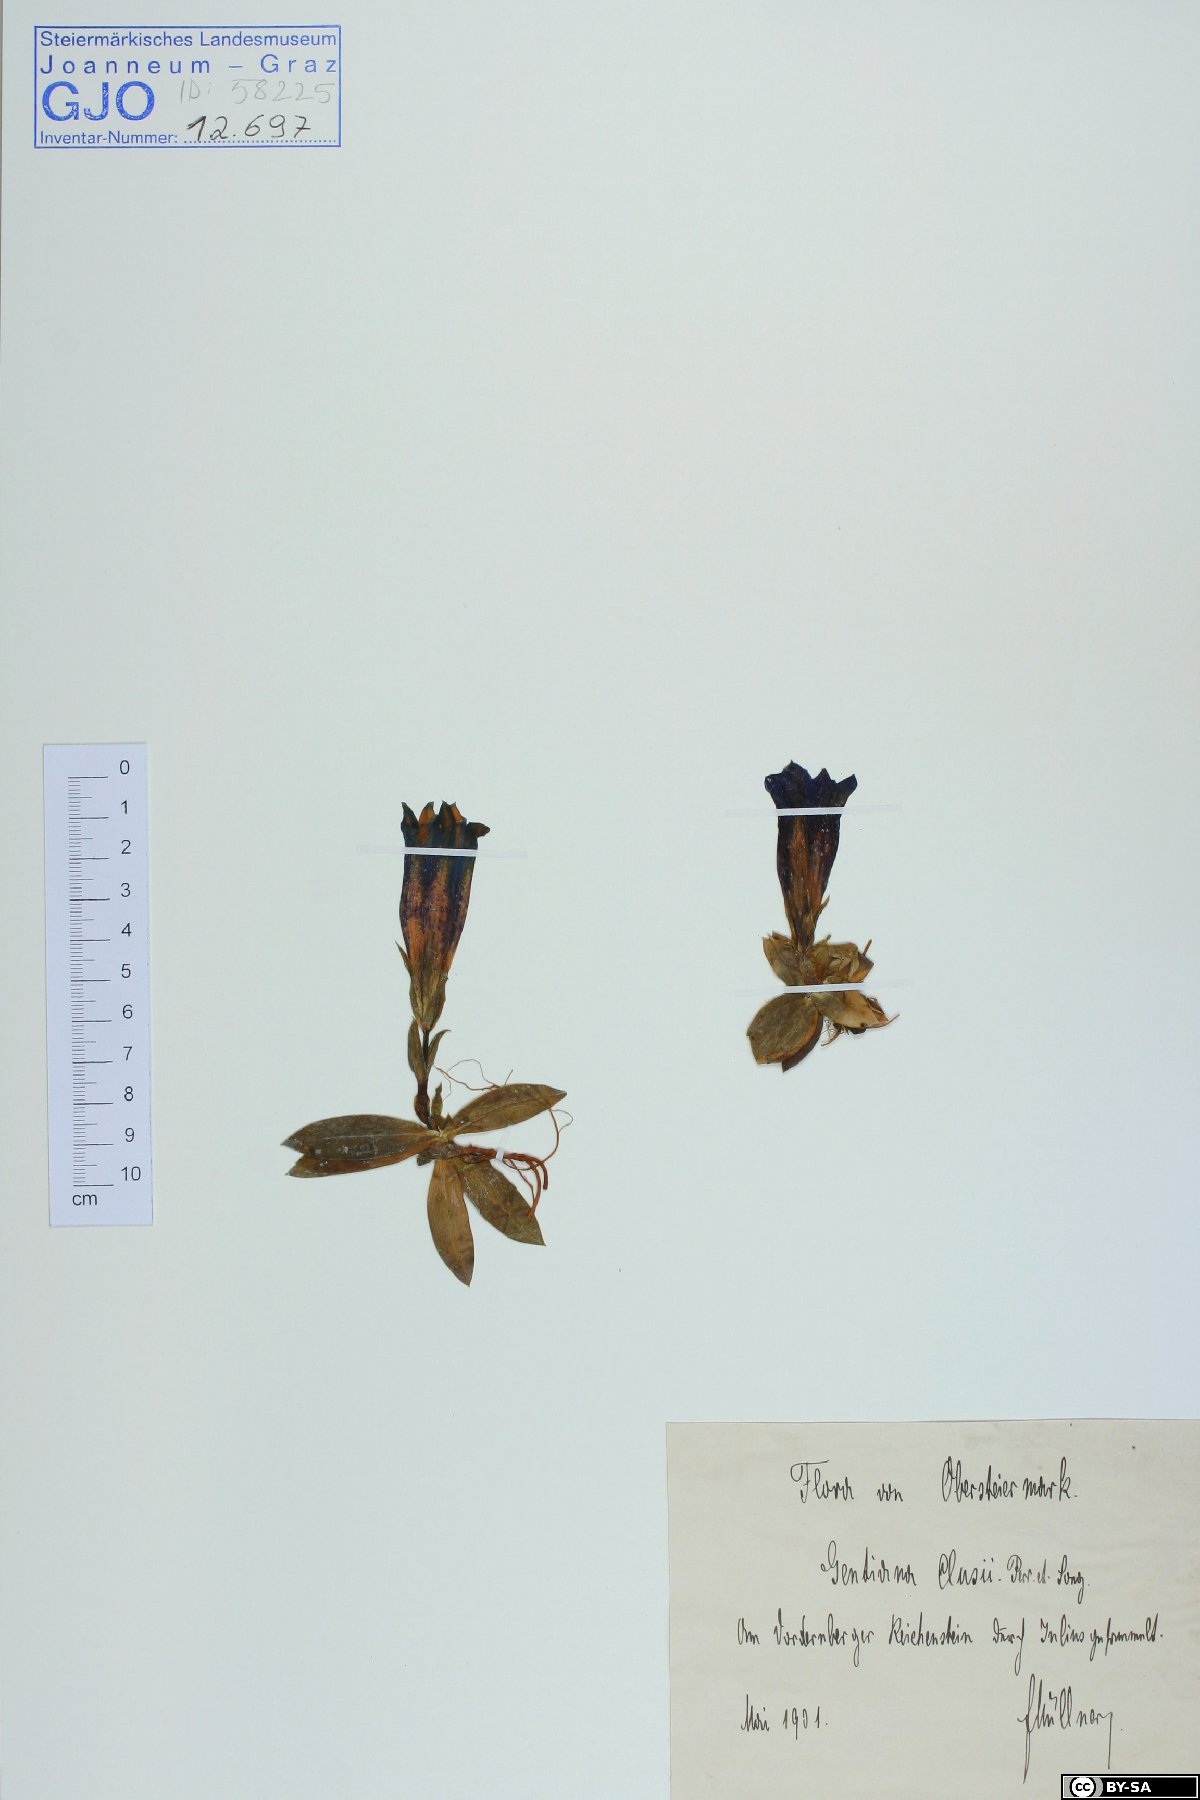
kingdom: Plantae
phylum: Tracheophyta
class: Magnoliopsida
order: Gentianales
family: Gentianaceae
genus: Gentiana
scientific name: Gentiana clusii
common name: Trumpet gentian
